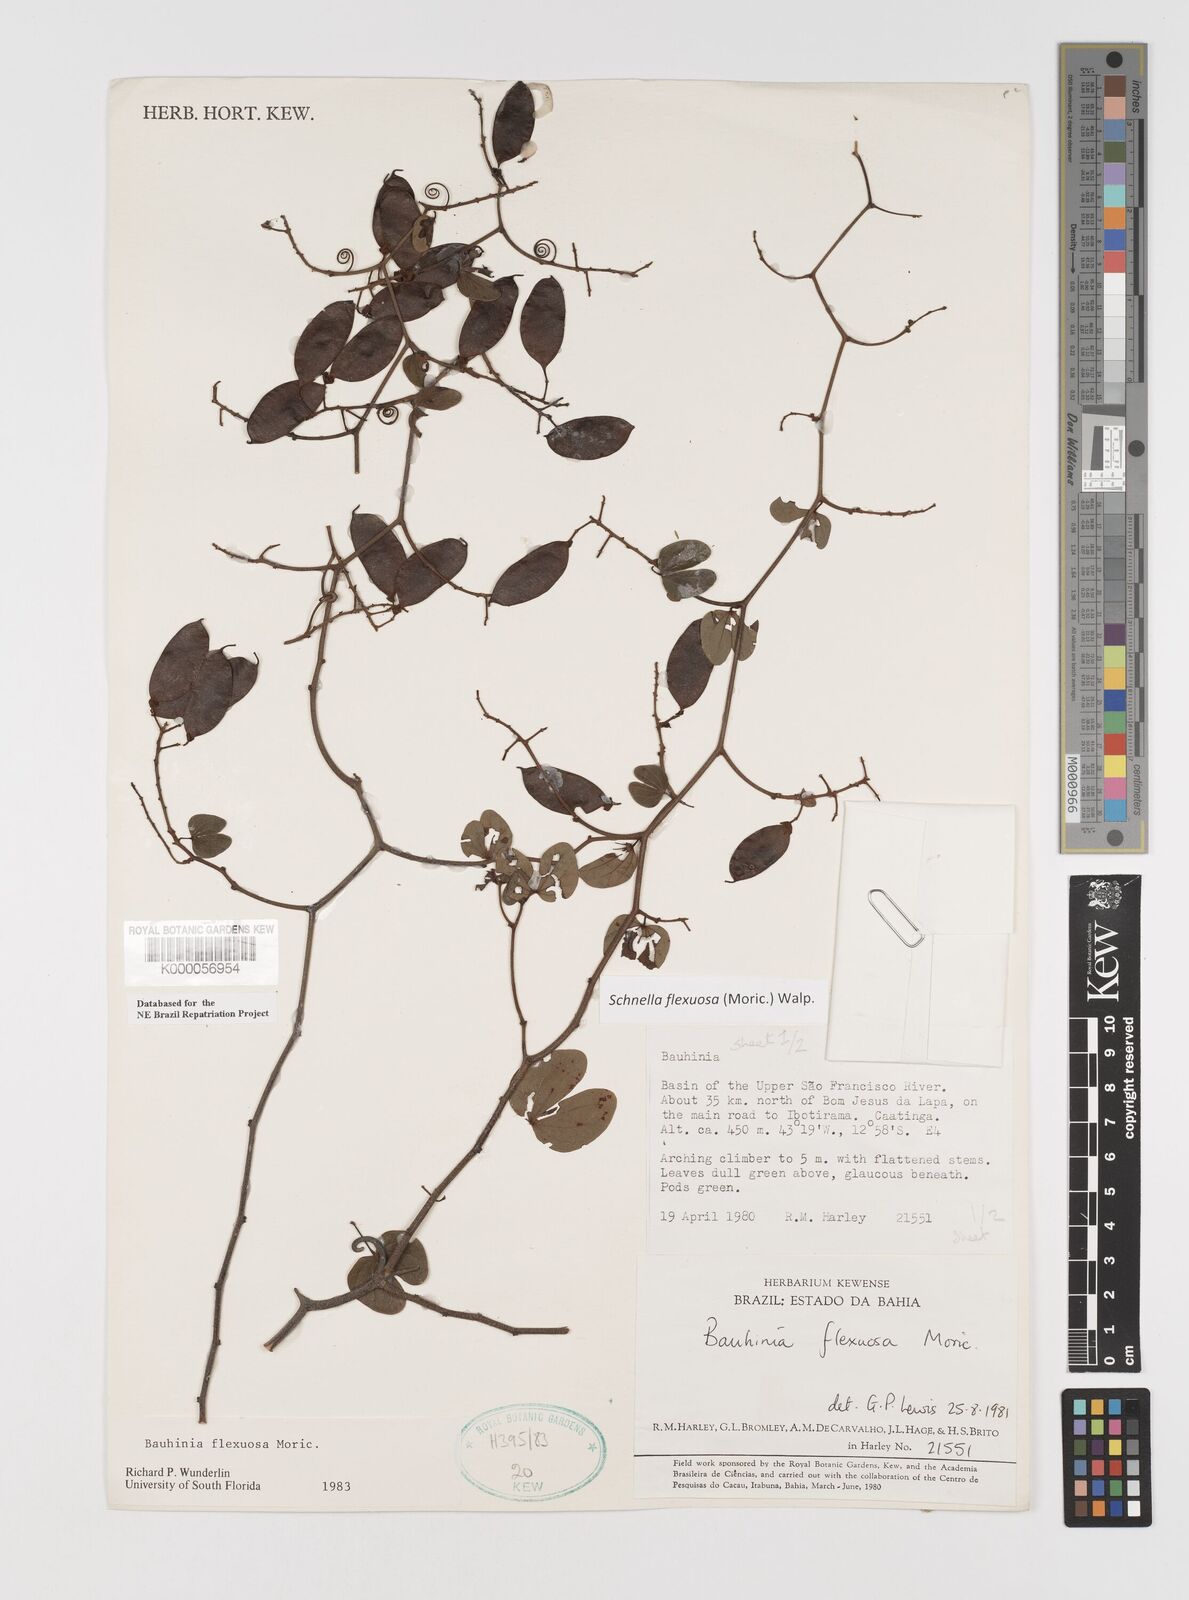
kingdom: Plantae
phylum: Tracheophyta
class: Magnoliopsida
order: Fabales
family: Fabaceae
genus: Schnella
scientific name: Schnella flexuosa
